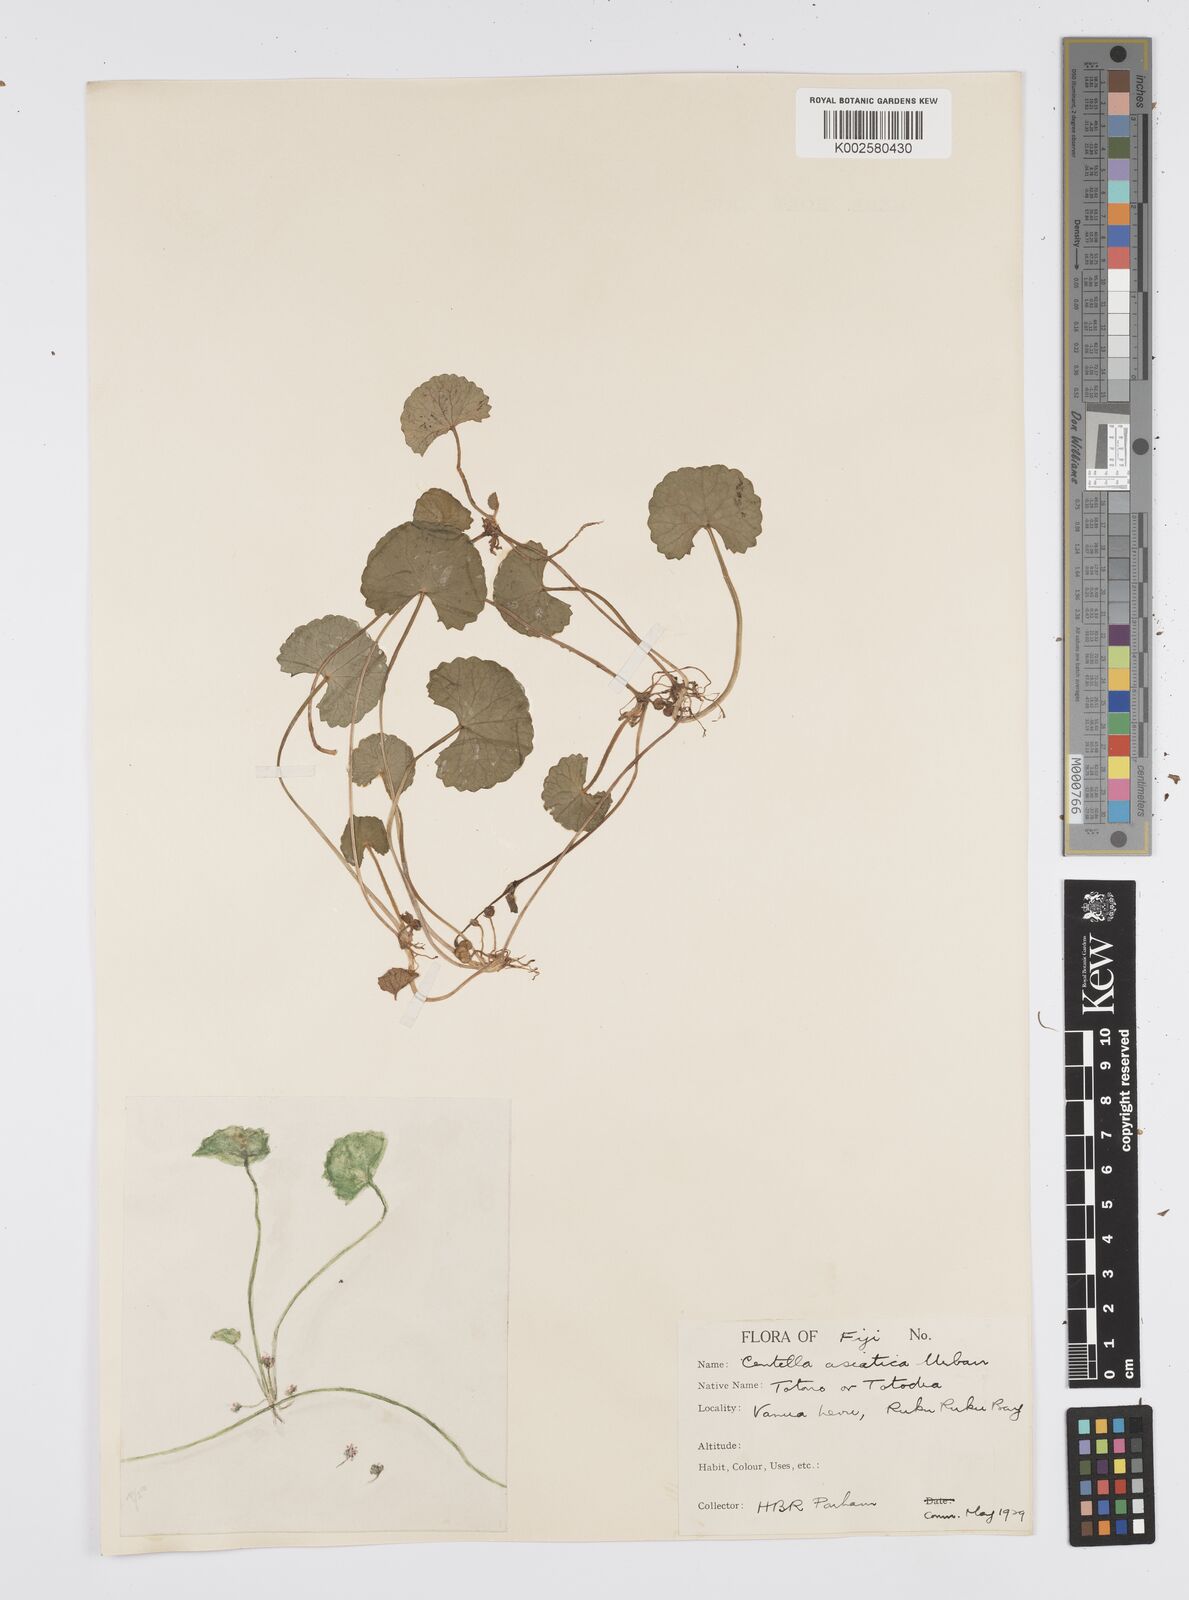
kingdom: Plantae
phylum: Tracheophyta
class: Magnoliopsida
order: Apiales
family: Apiaceae
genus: Centella
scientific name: Centella asiatica
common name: Spadeleaf
